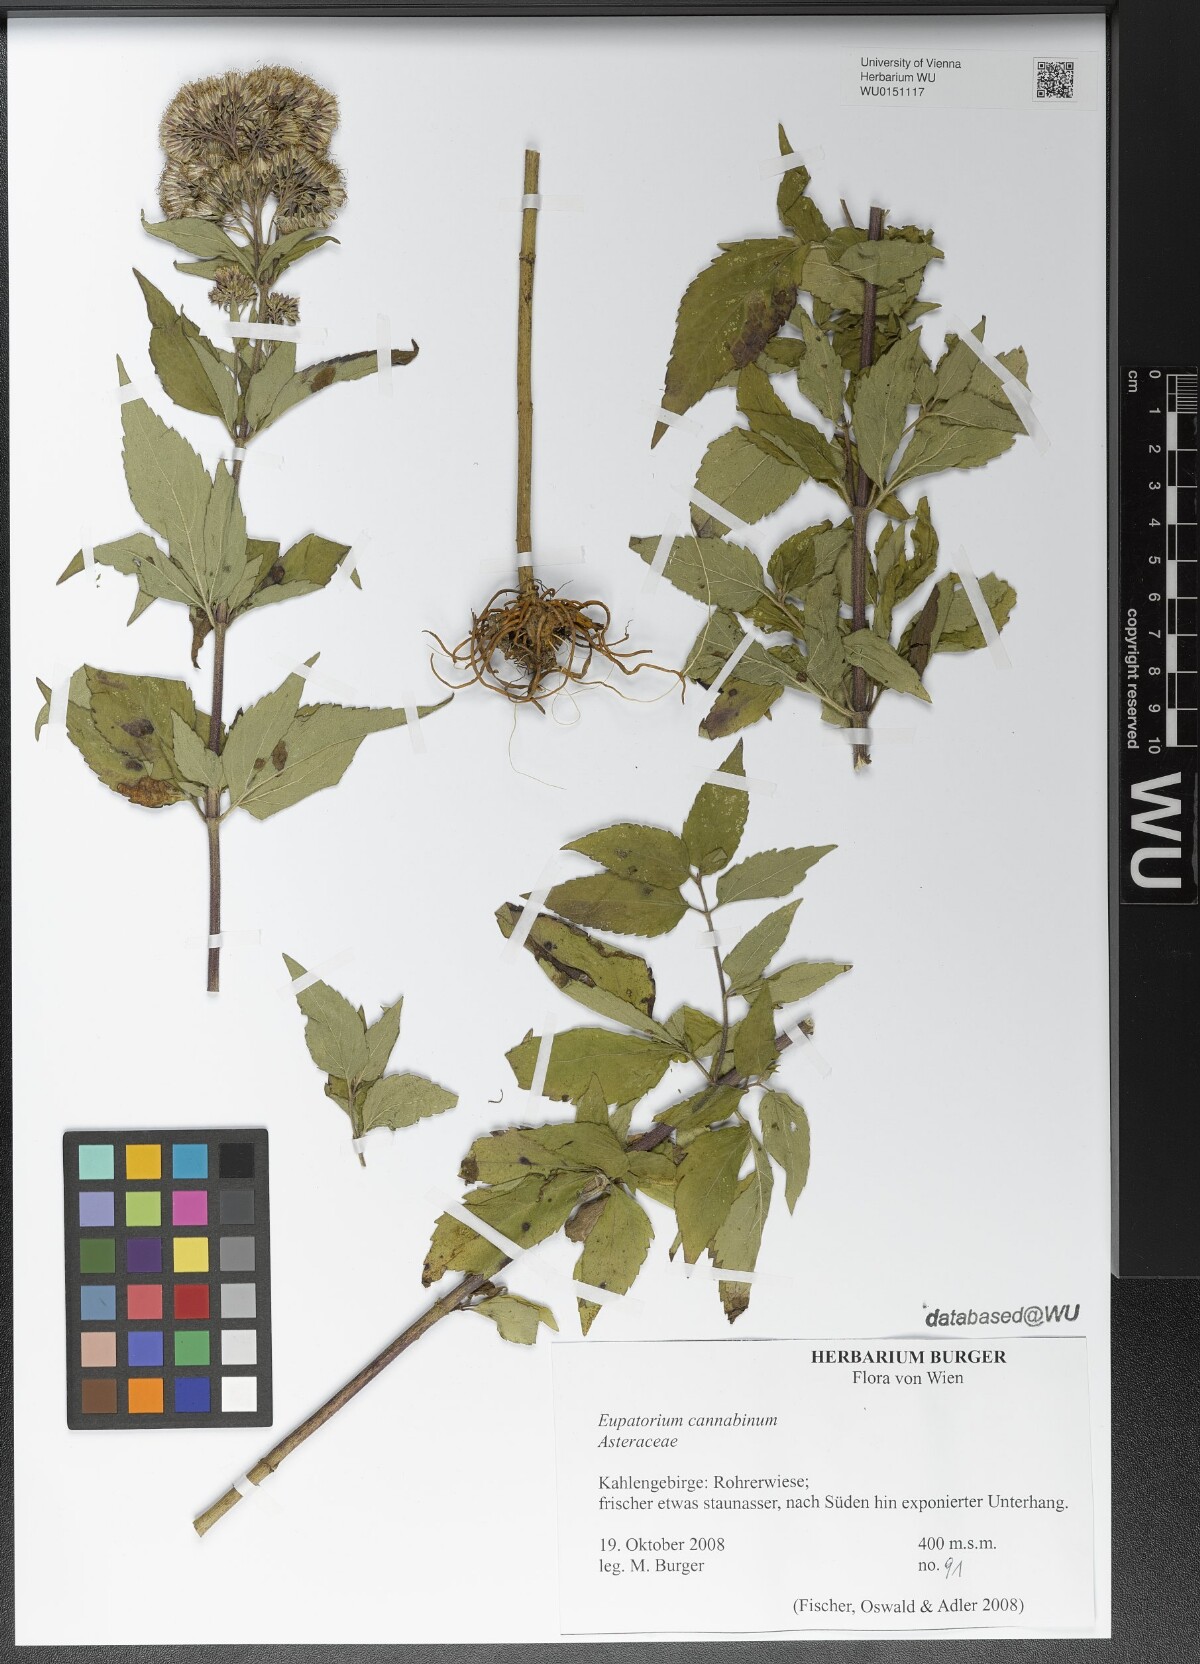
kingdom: Plantae
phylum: Tracheophyta
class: Magnoliopsida
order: Asterales
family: Asteraceae
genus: Eupatorium
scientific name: Eupatorium cannabinum
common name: Hemp-agrimony
